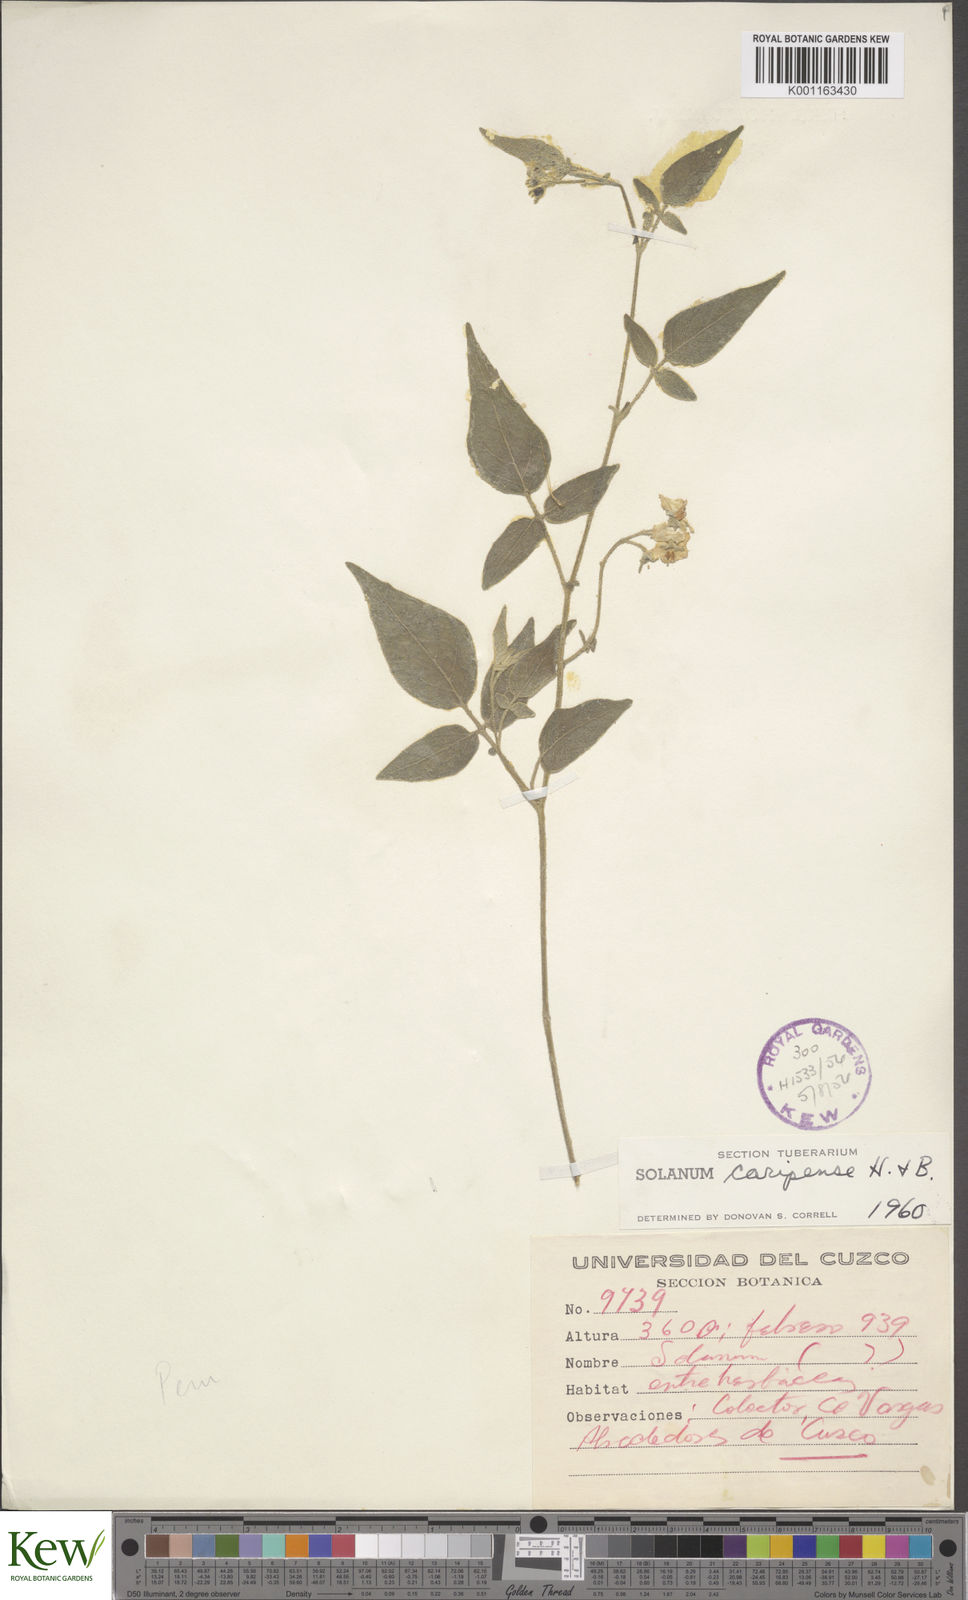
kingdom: Plantae
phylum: Tracheophyta
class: Magnoliopsida
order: Solanales
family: Solanaceae
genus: Solanum
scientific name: Solanum caripense
